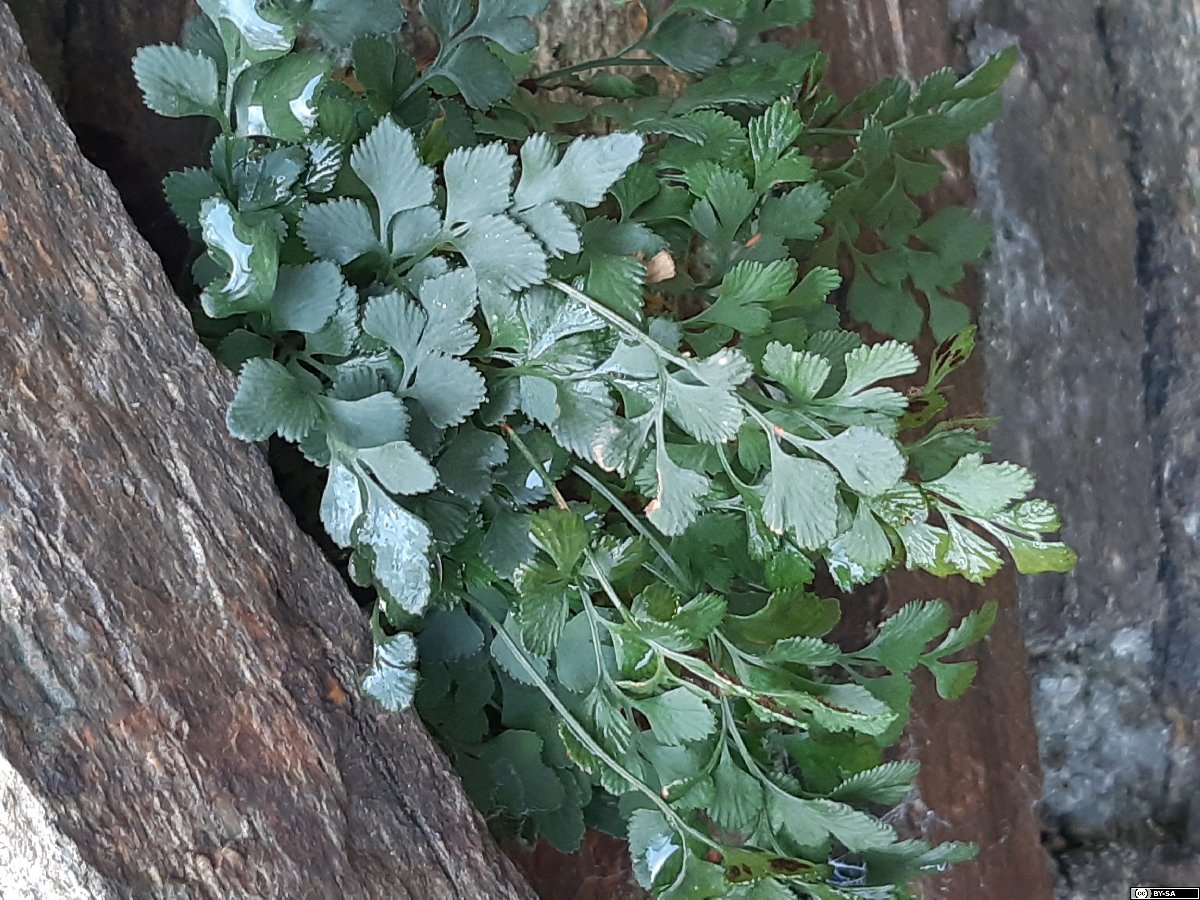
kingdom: Plantae
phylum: Tracheophyta
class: Polypodiopsida
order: Polypodiales
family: Aspleniaceae
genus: Asplenium
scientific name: Asplenium ruta-muraria
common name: Wall-rue
